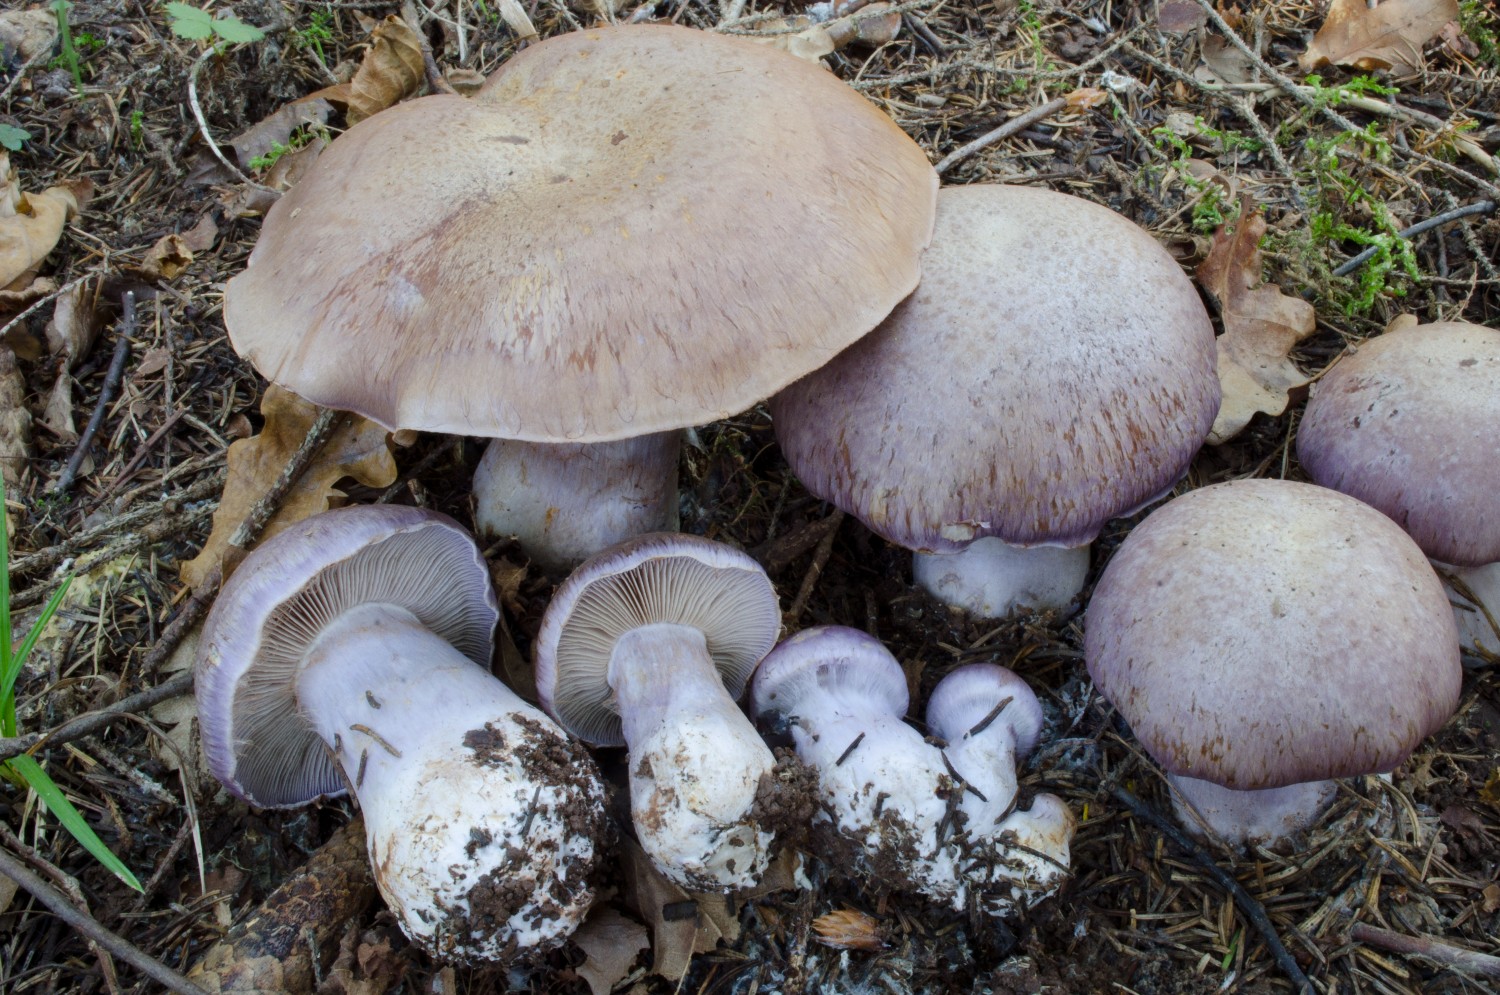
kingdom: Fungi
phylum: Basidiomycota
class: Agaricomycetes
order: Agaricales
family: Cortinariaceae
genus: Cortinarius
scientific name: Cortinarius variecolor
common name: violetagtig slørhat
